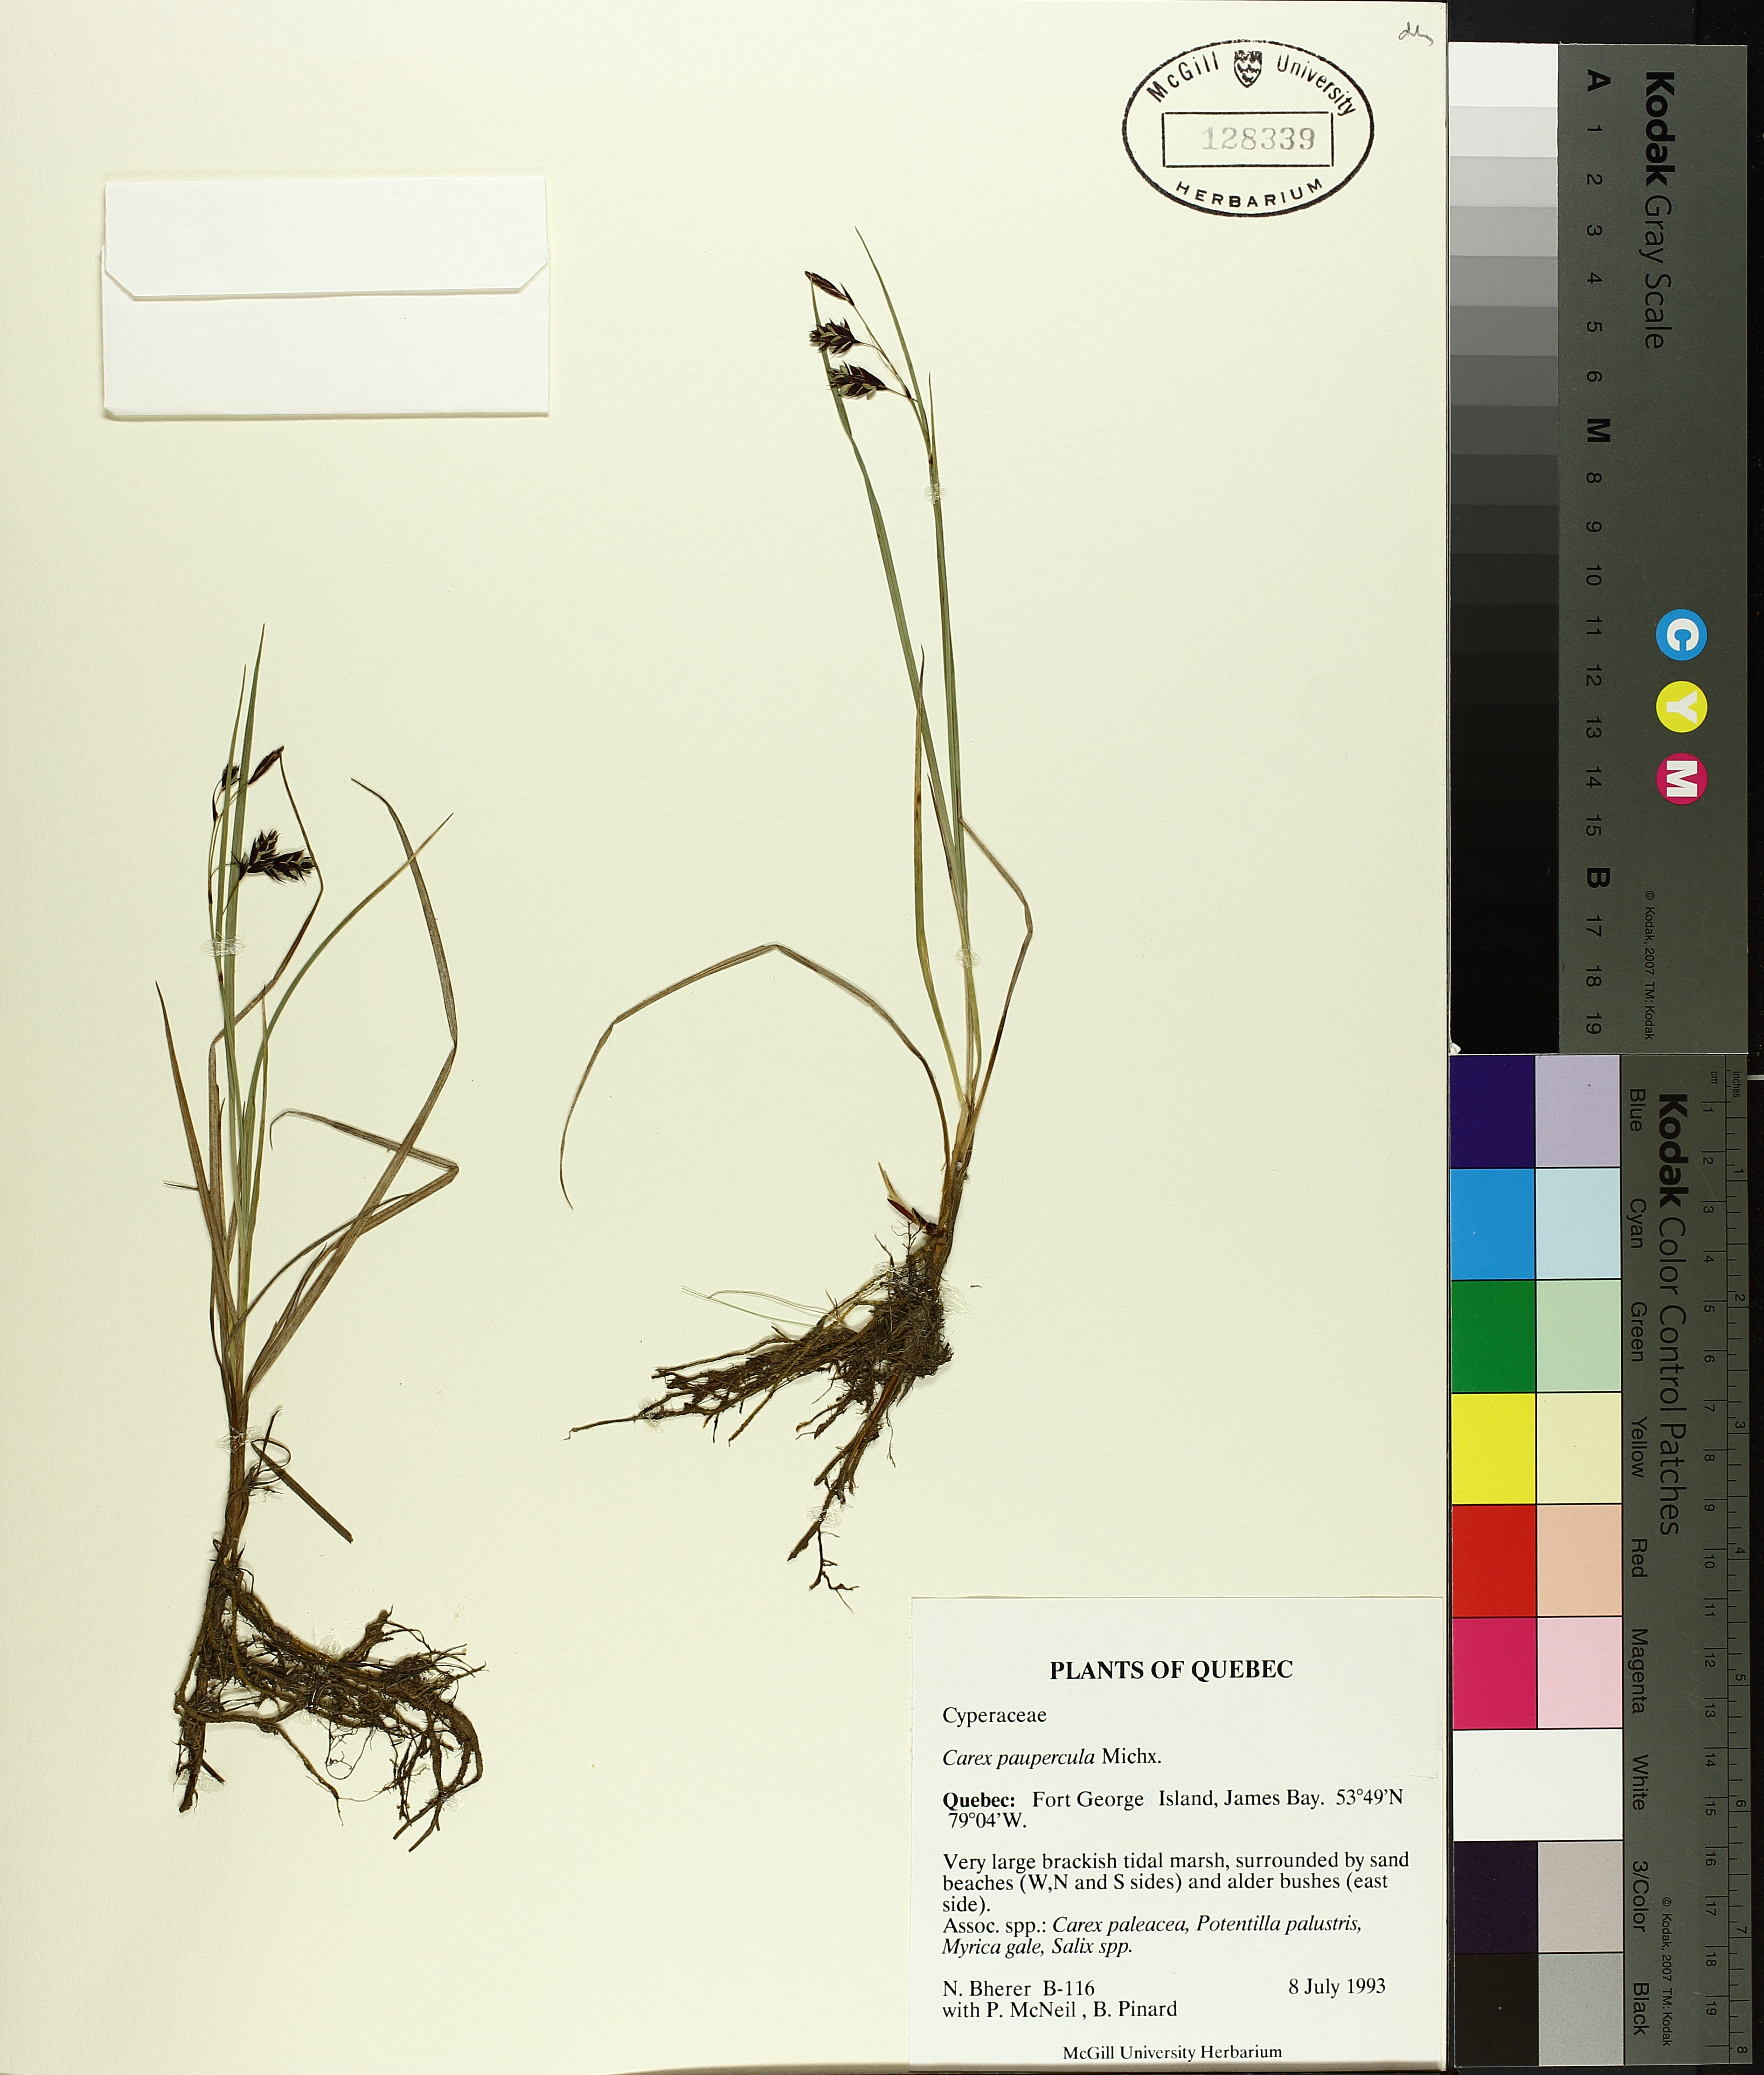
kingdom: Plantae
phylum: Tracheophyta
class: Liliopsida
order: Poales
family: Cyperaceae
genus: Carex
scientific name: Carex magellanica
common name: Bog sedge
